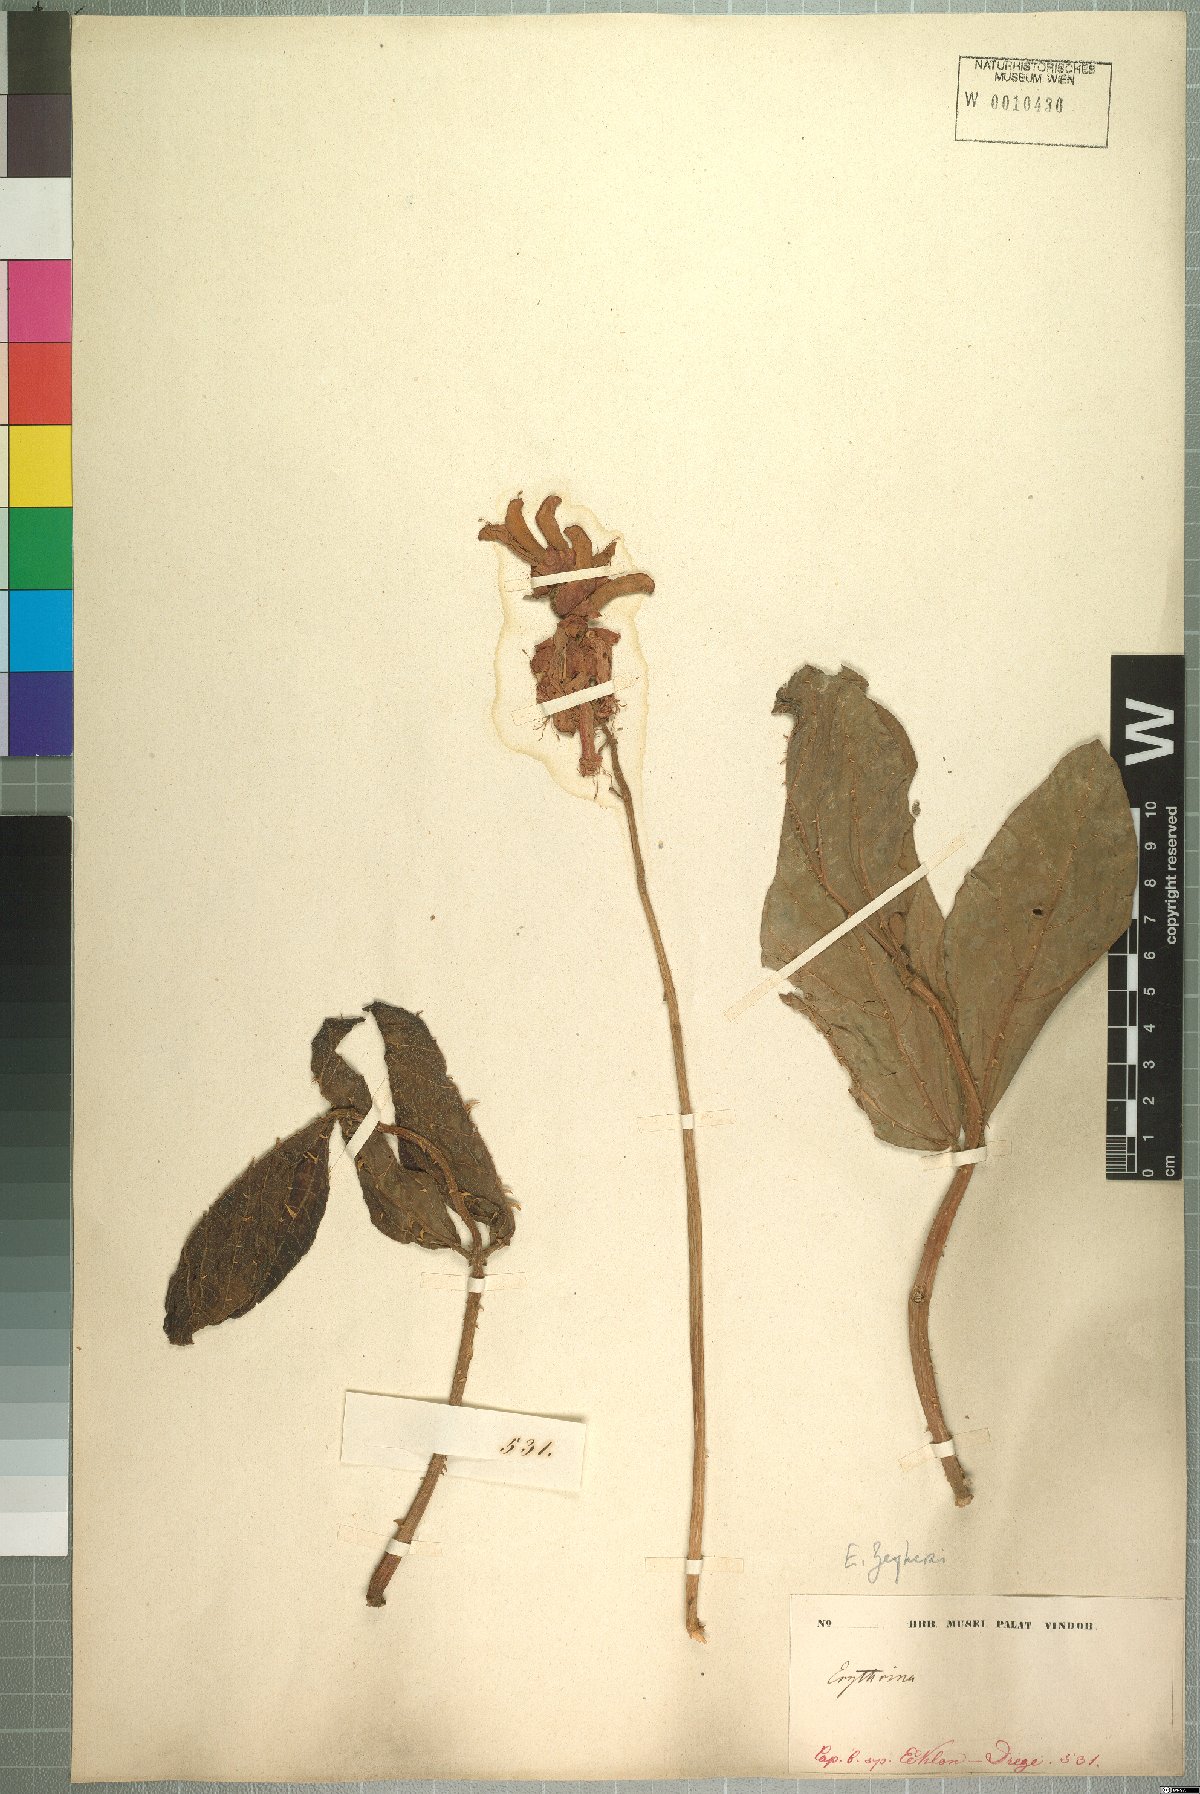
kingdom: Plantae
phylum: Tracheophyta
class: Magnoliopsida
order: Fabales
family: Fabaceae
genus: Erythrina
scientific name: Erythrina zeyheri
